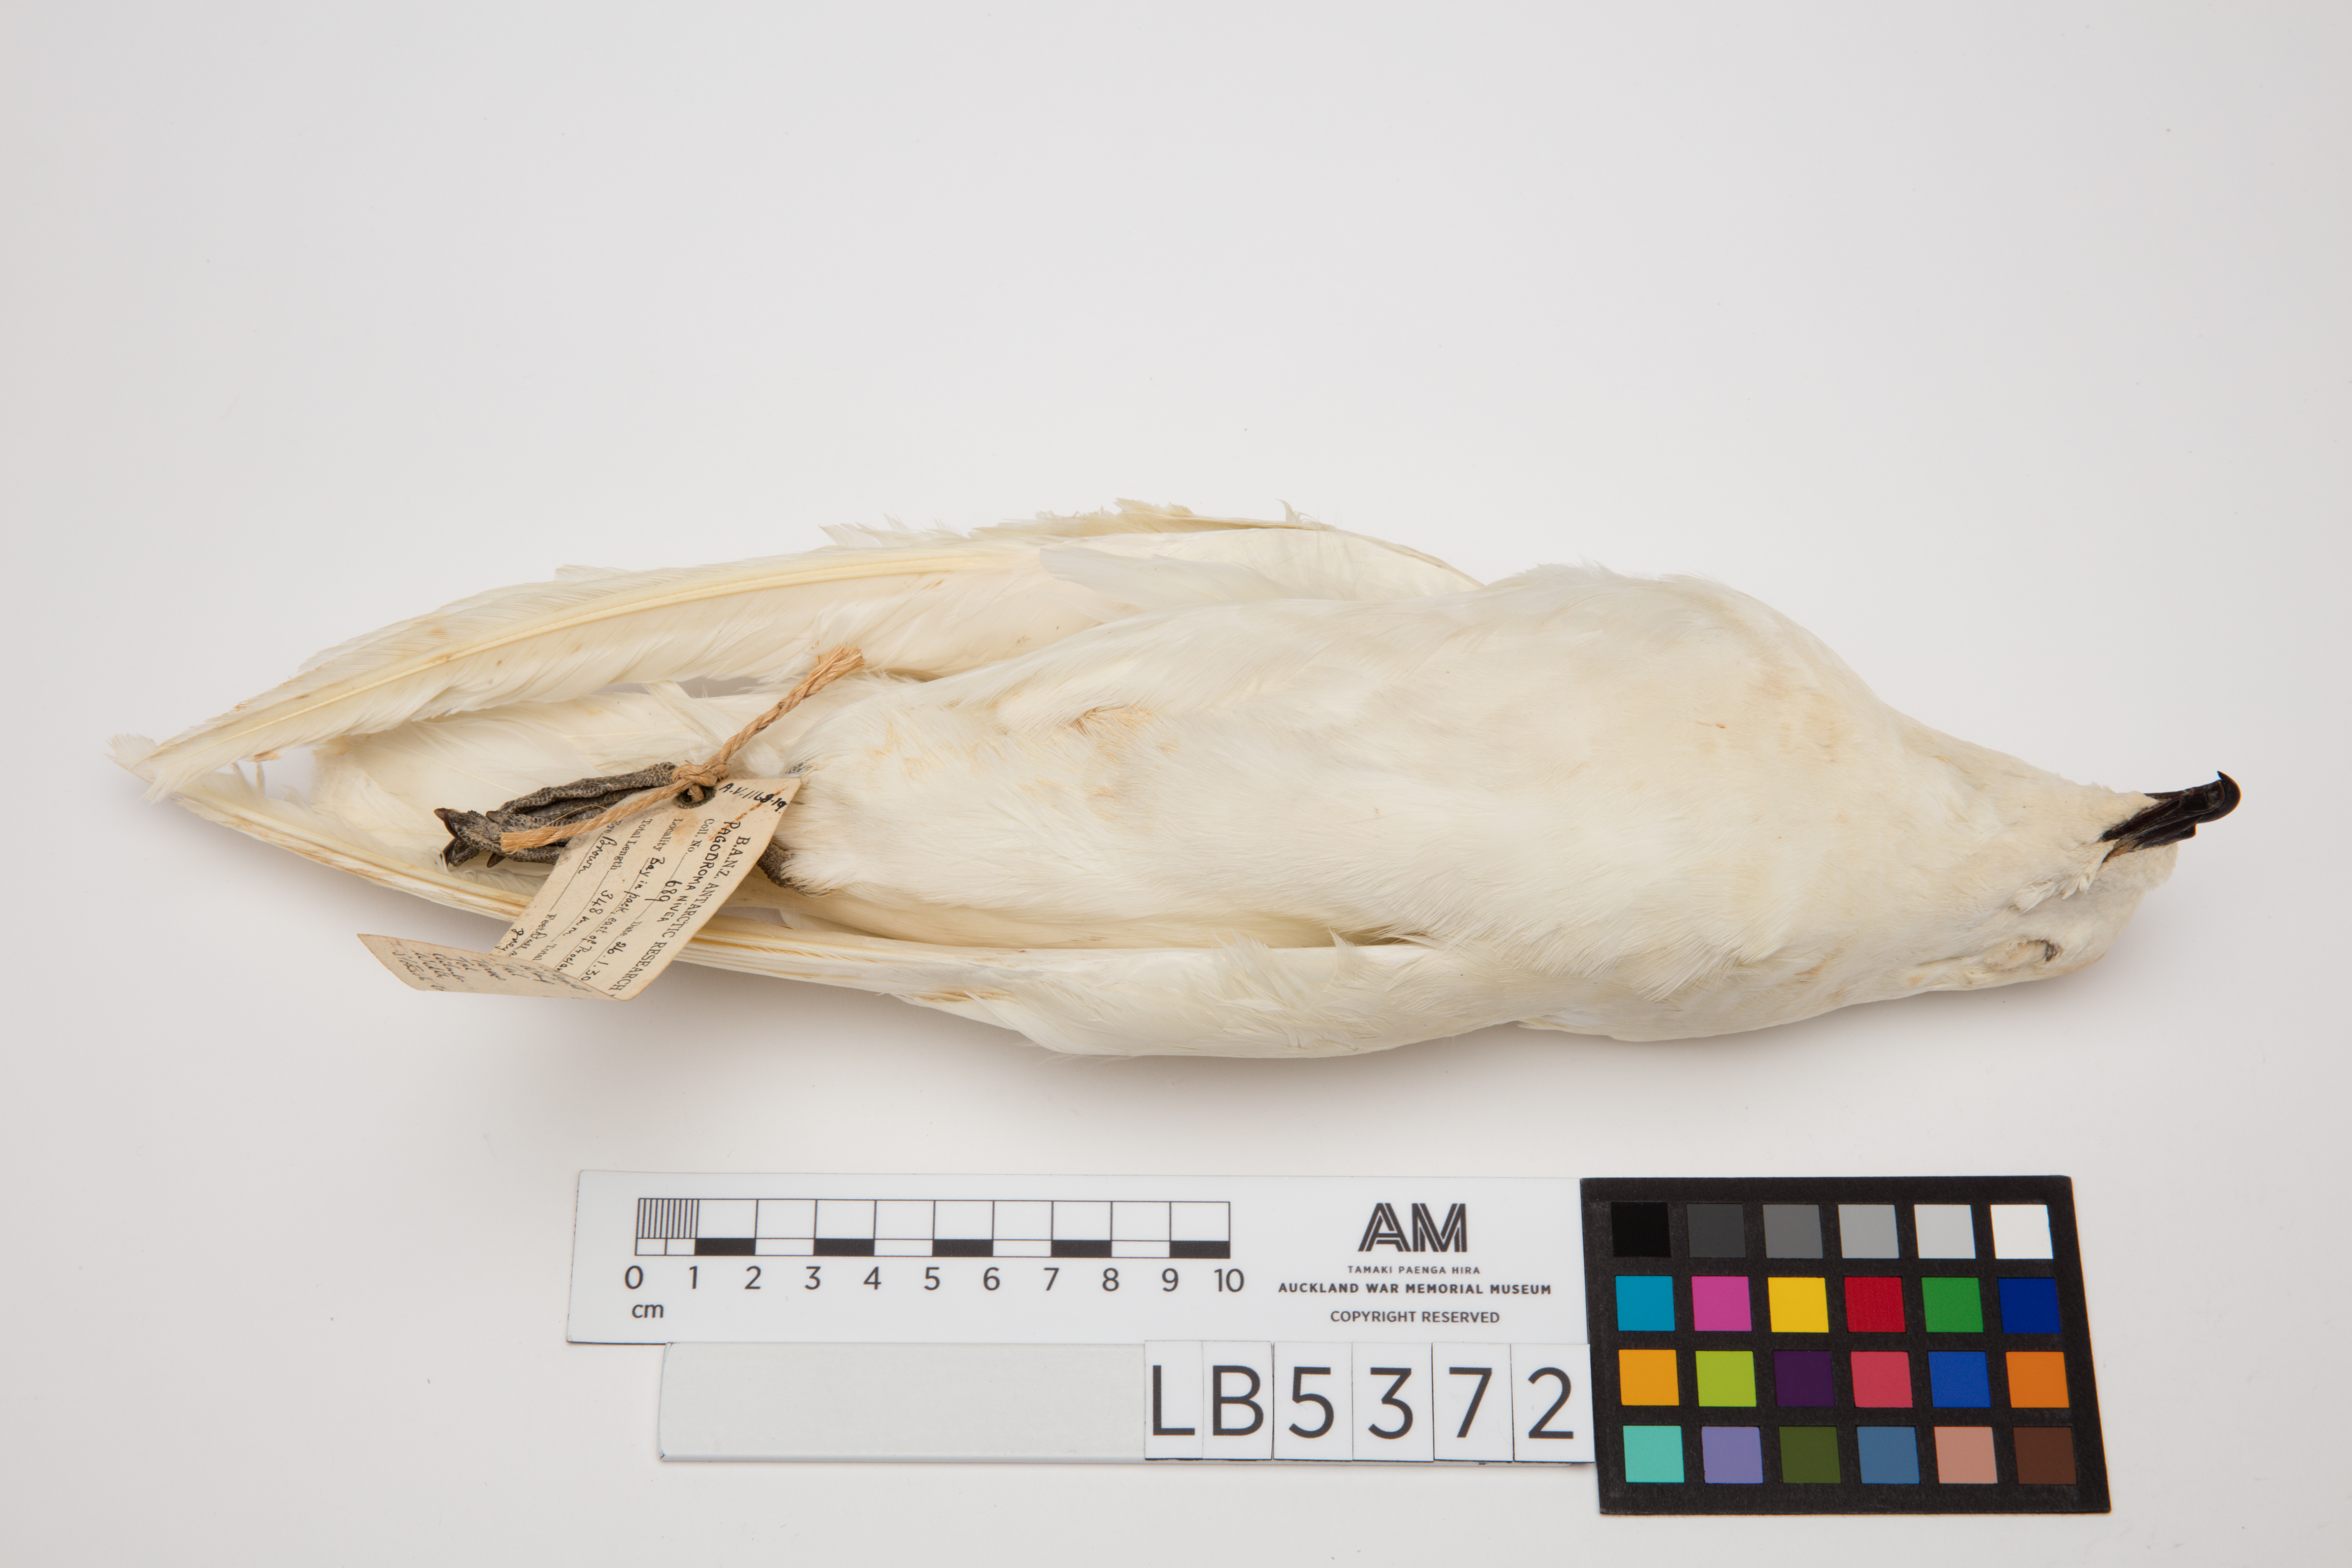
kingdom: Animalia
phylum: Chordata
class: Aves
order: Procellariiformes
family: Procellariidae
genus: Pagodroma
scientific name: Pagodroma nivea
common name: Snow petrel
